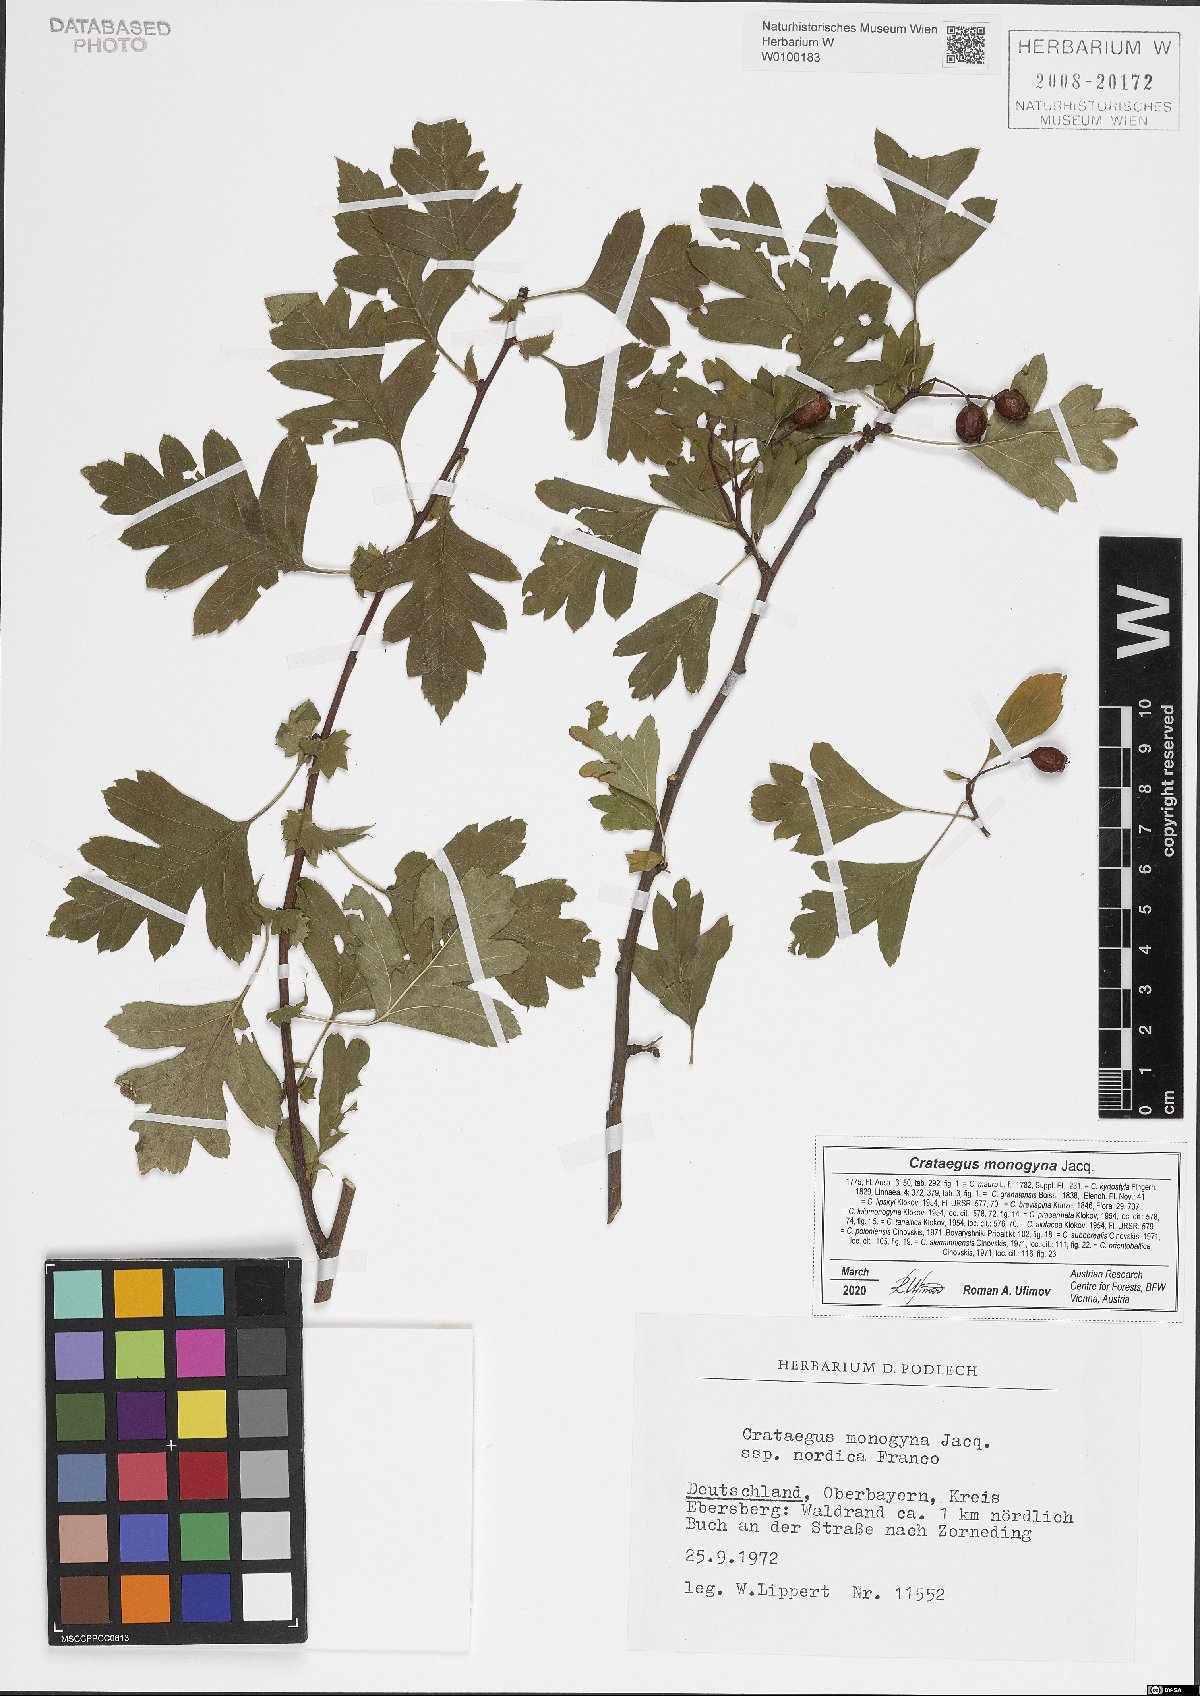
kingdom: Plantae
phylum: Tracheophyta
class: Magnoliopsida
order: Rosales
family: Rosaceae
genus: Crataegus
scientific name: Crataegus monogyna
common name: Hawthorn
